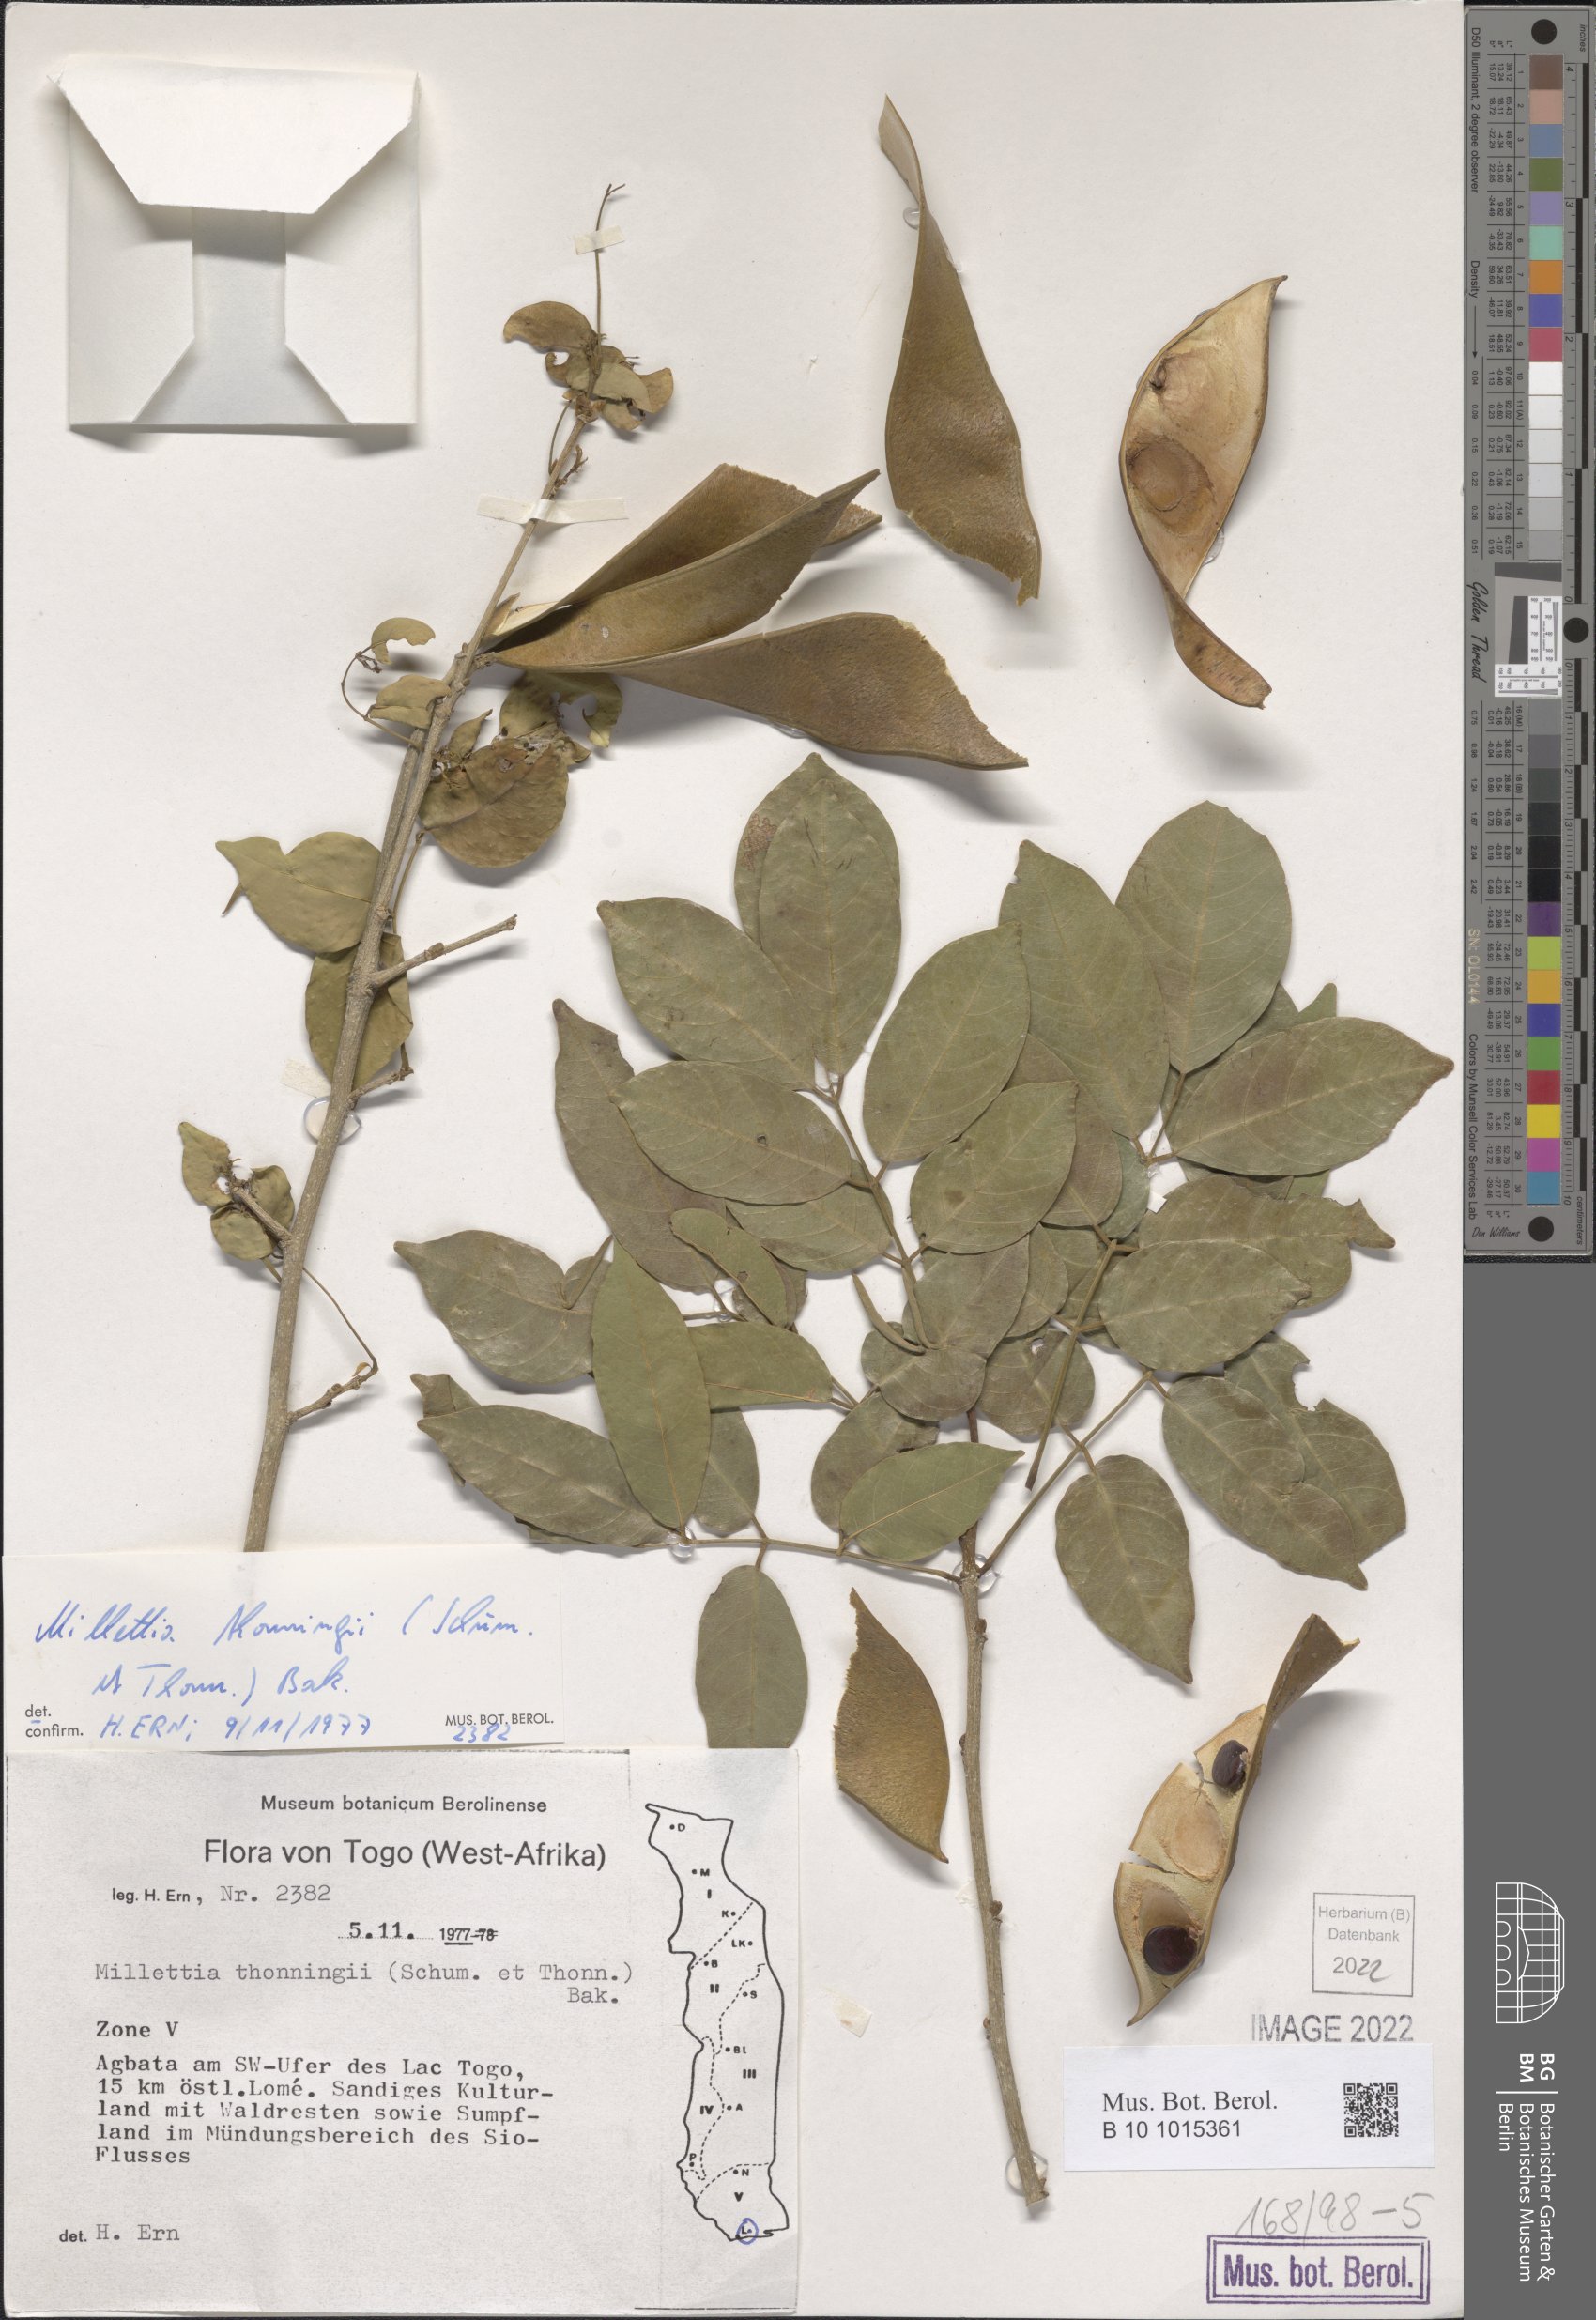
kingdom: Plantae
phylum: Tracheophyta
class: Magnoliopsida
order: Fabales
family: Fabaceae
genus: Millettia
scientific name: Millettia thonningii
